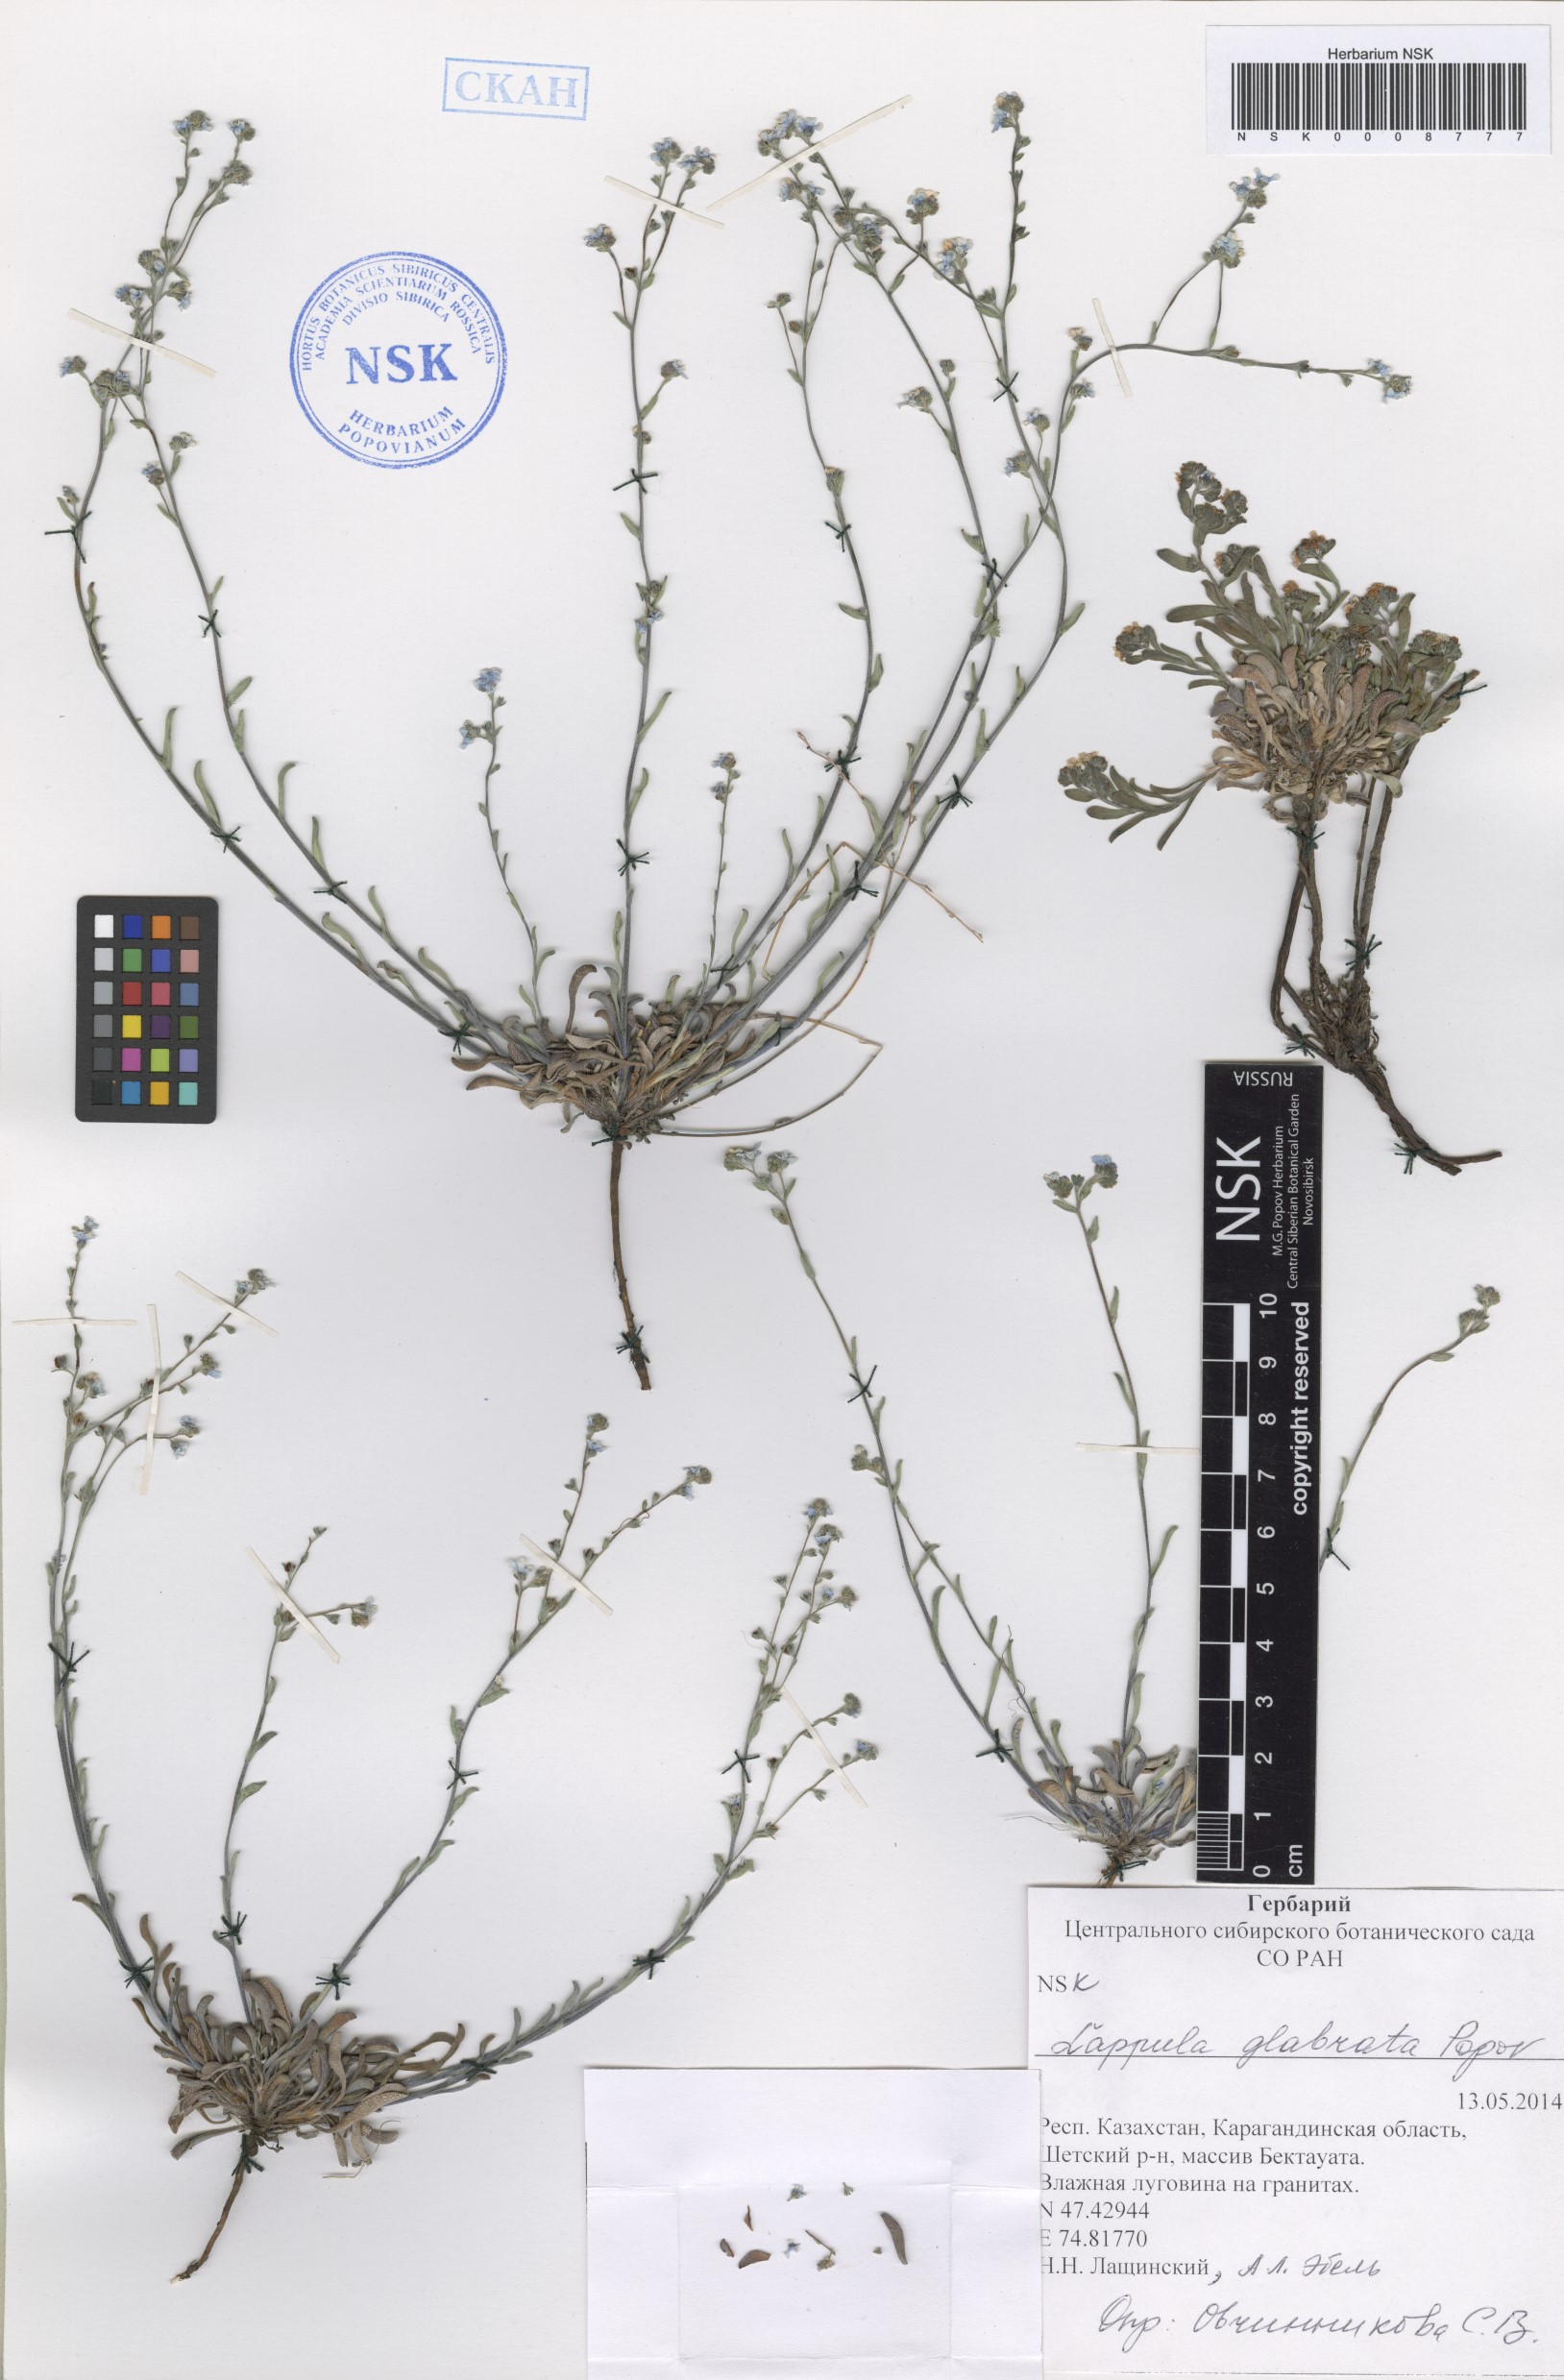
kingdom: Plantae
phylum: Tracheophyta
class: Magnoliopsida
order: Boraginales
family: Boraginaceae
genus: Lappula
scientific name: Lappula glabrata
